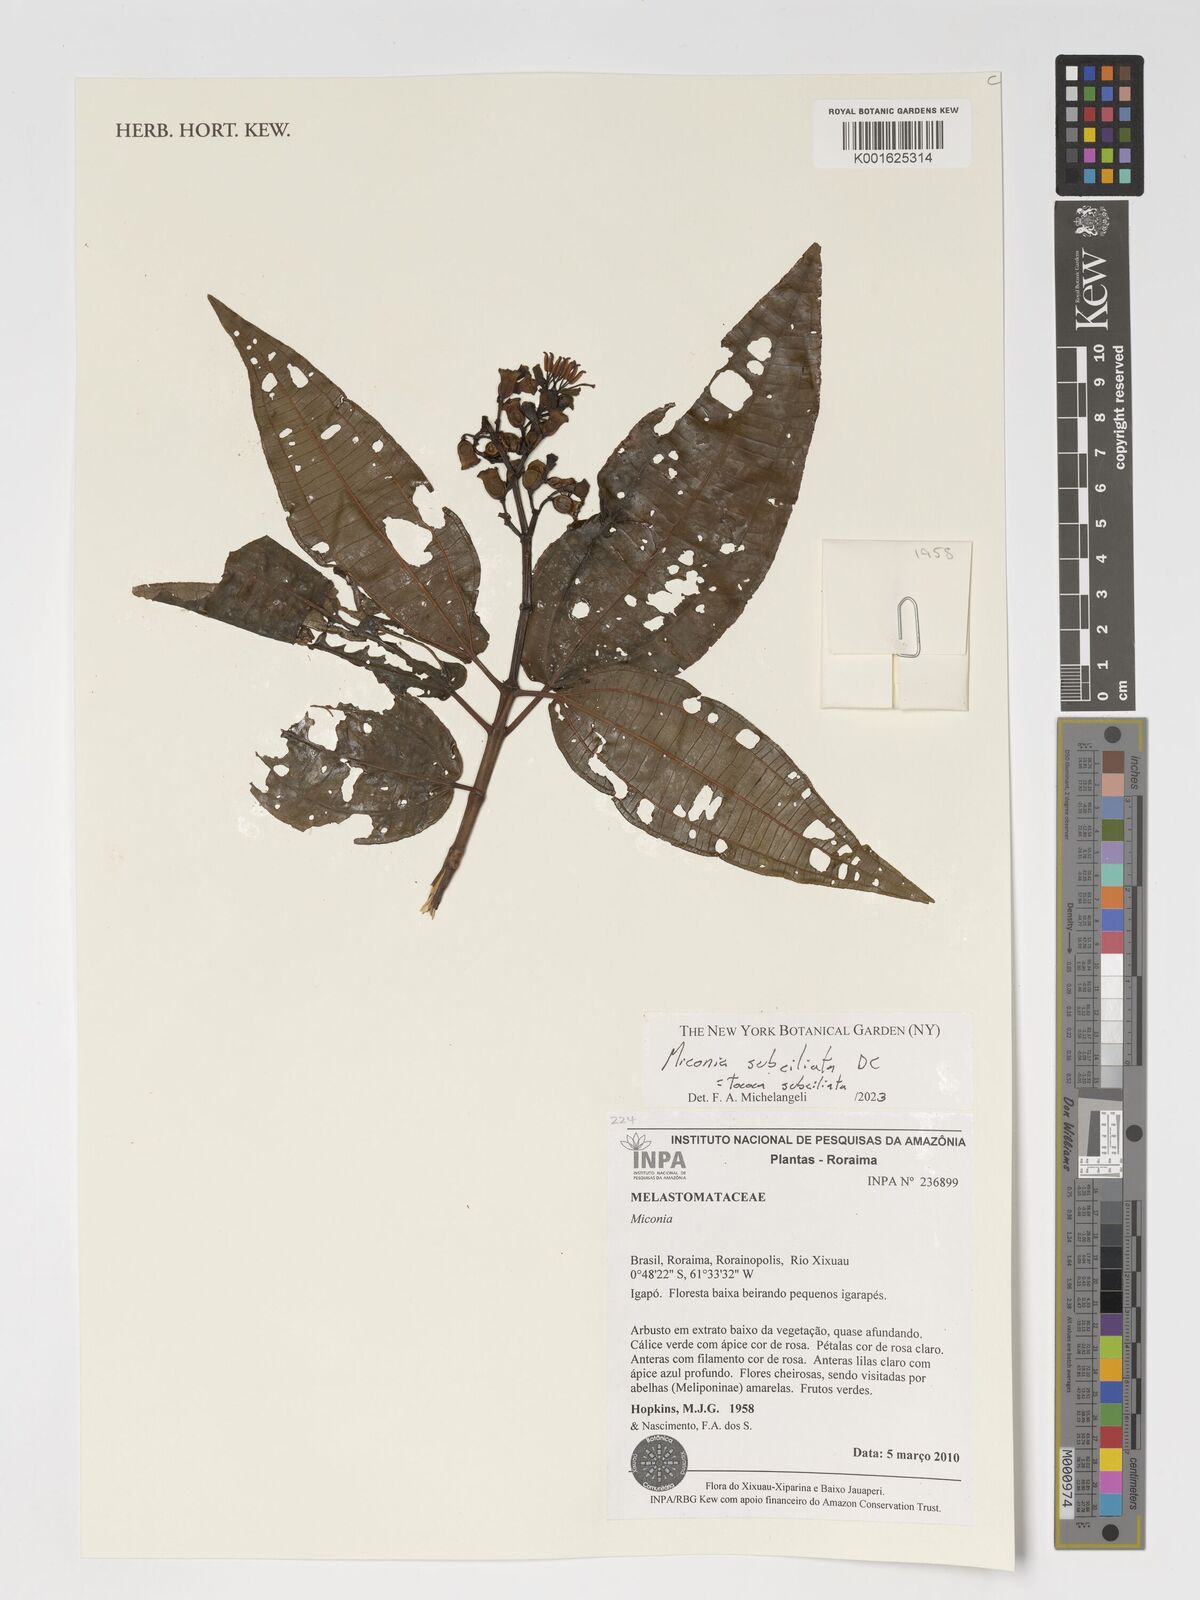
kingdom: Plantae
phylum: Tracheophyta
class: Magnoliopsida
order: Myrtales
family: Melastomataceae
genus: Miconia
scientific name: Miconia subciliata
